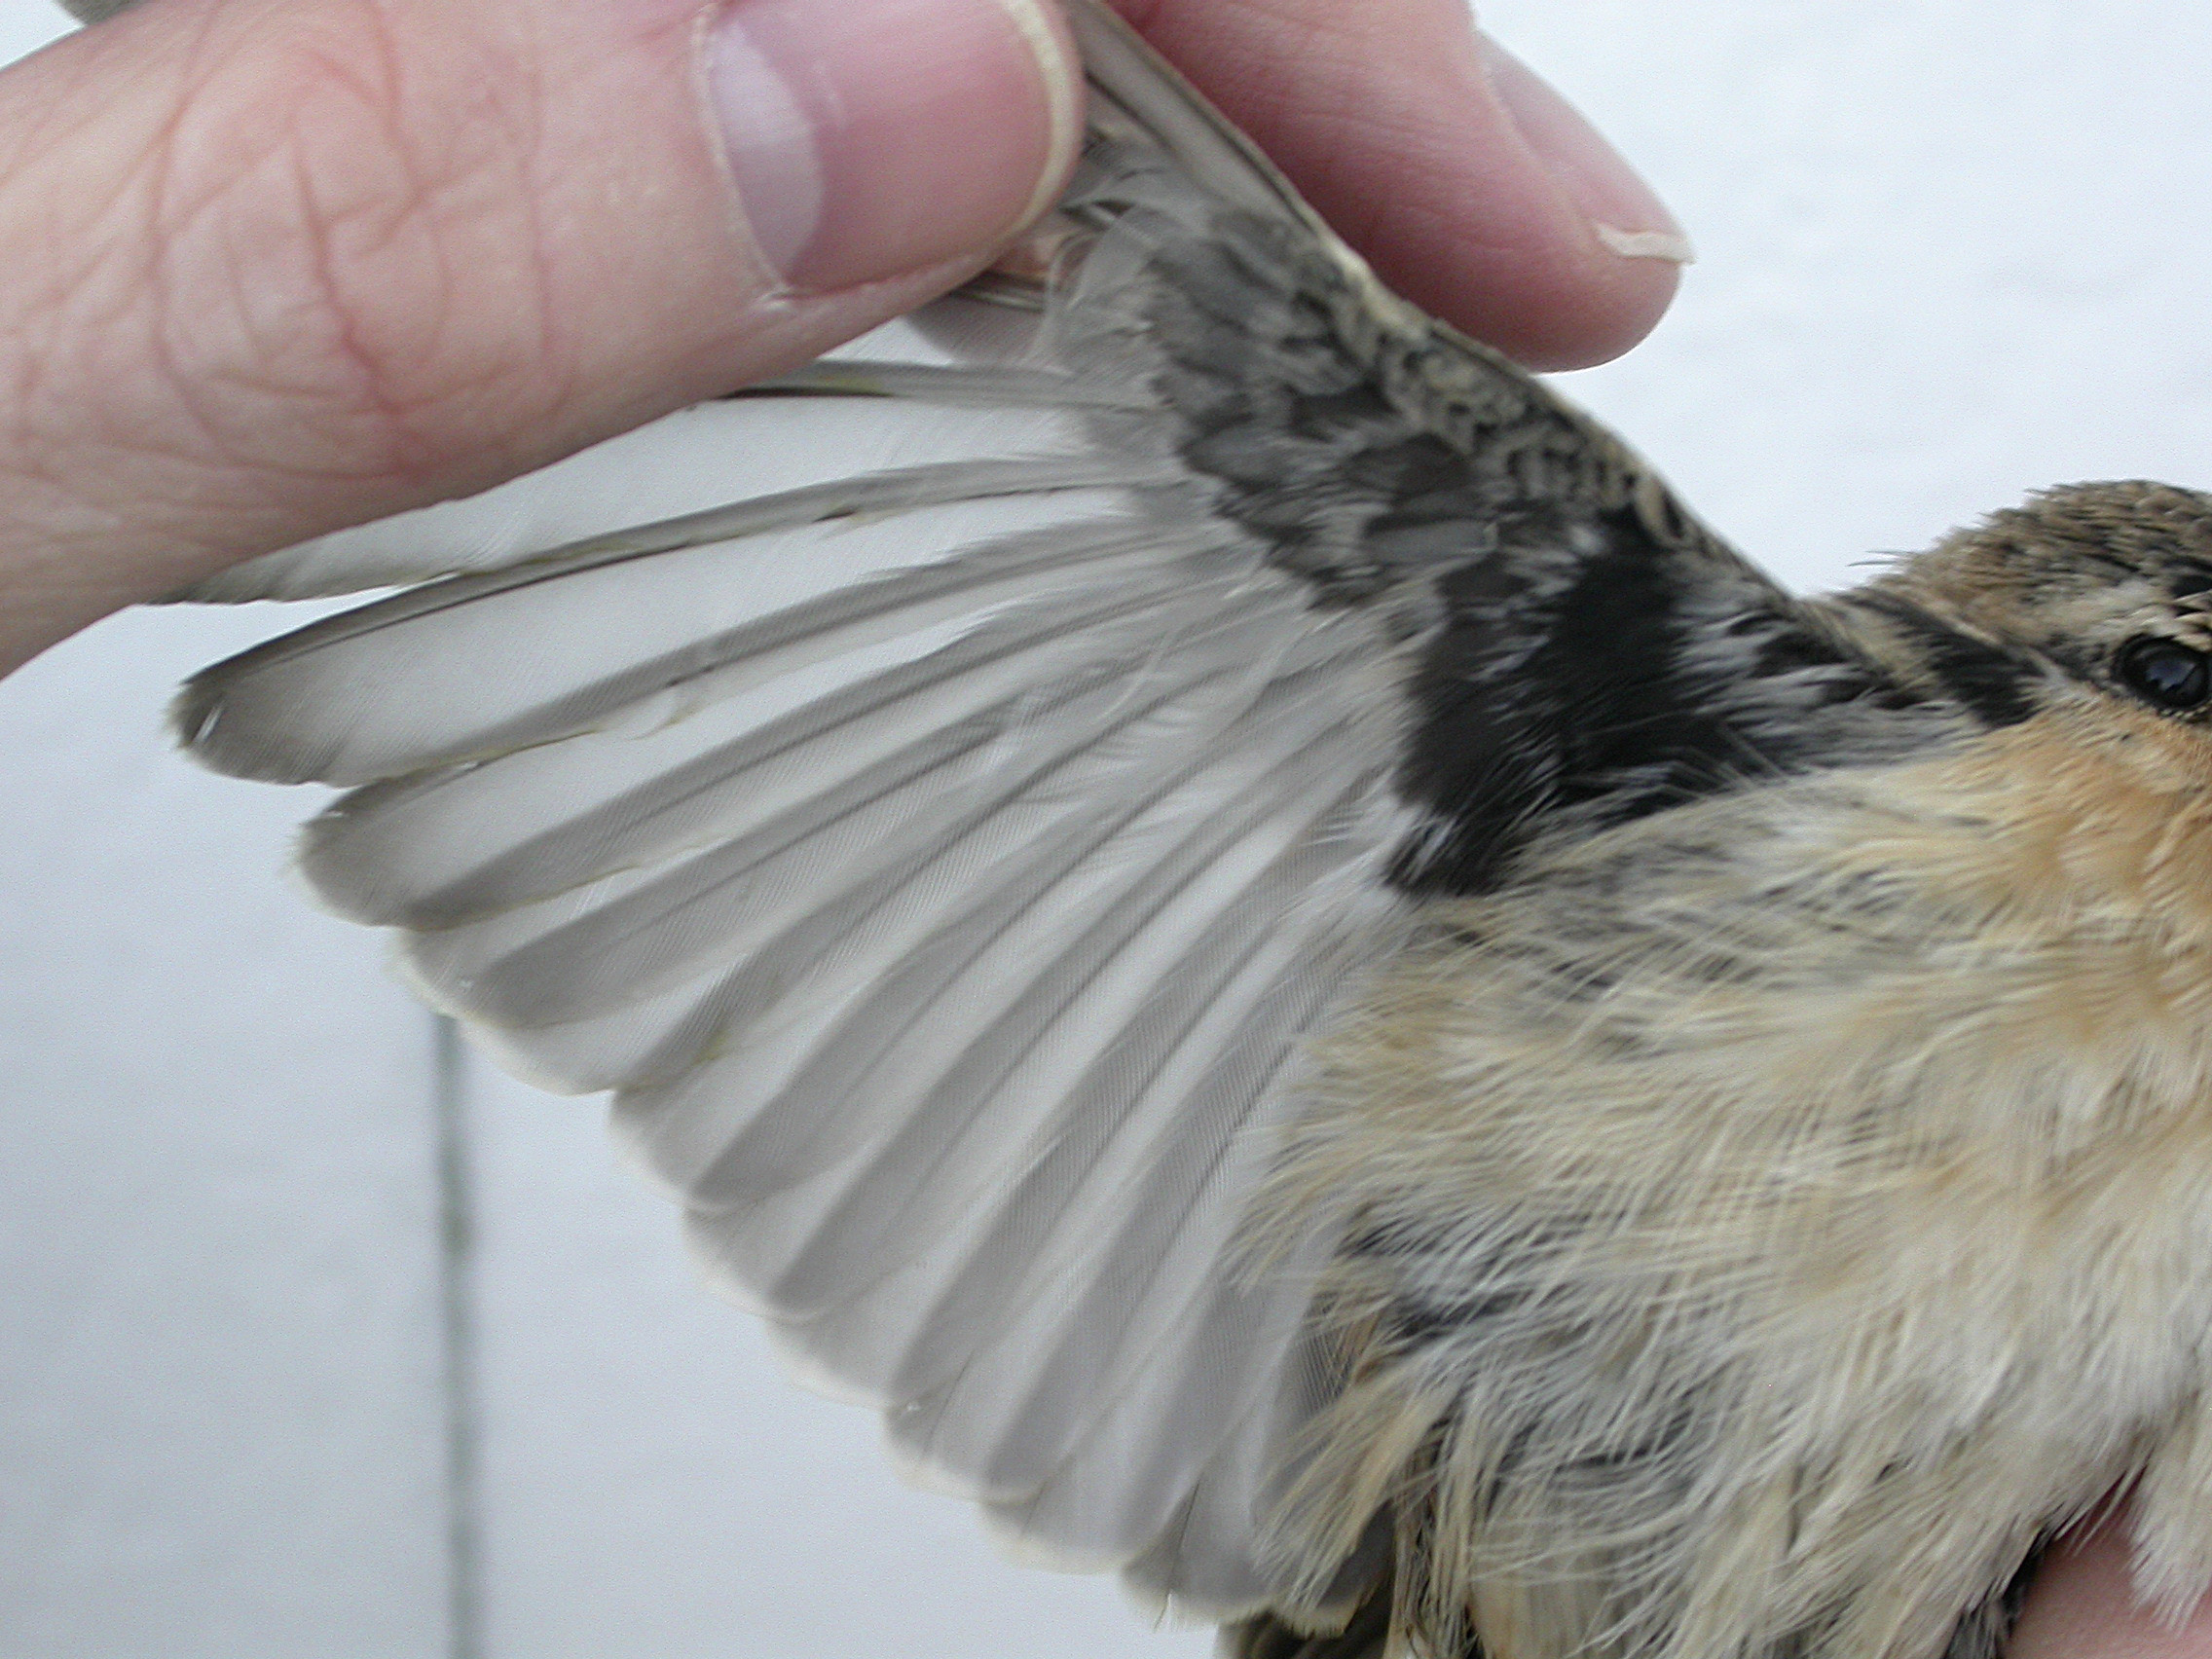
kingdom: Animalia
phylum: Chordata
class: Aves
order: Passeriformes
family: Muscicapidae
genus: Saxicola
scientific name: Saxicola maurus
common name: Siberian stonechat
